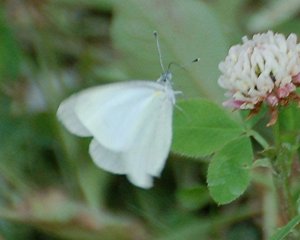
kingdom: Animalia
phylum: Arthropoda
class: Insecta
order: Lepidoptera
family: Pieridae
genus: Pieris
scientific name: Pieris oleracea
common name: Mustard White
